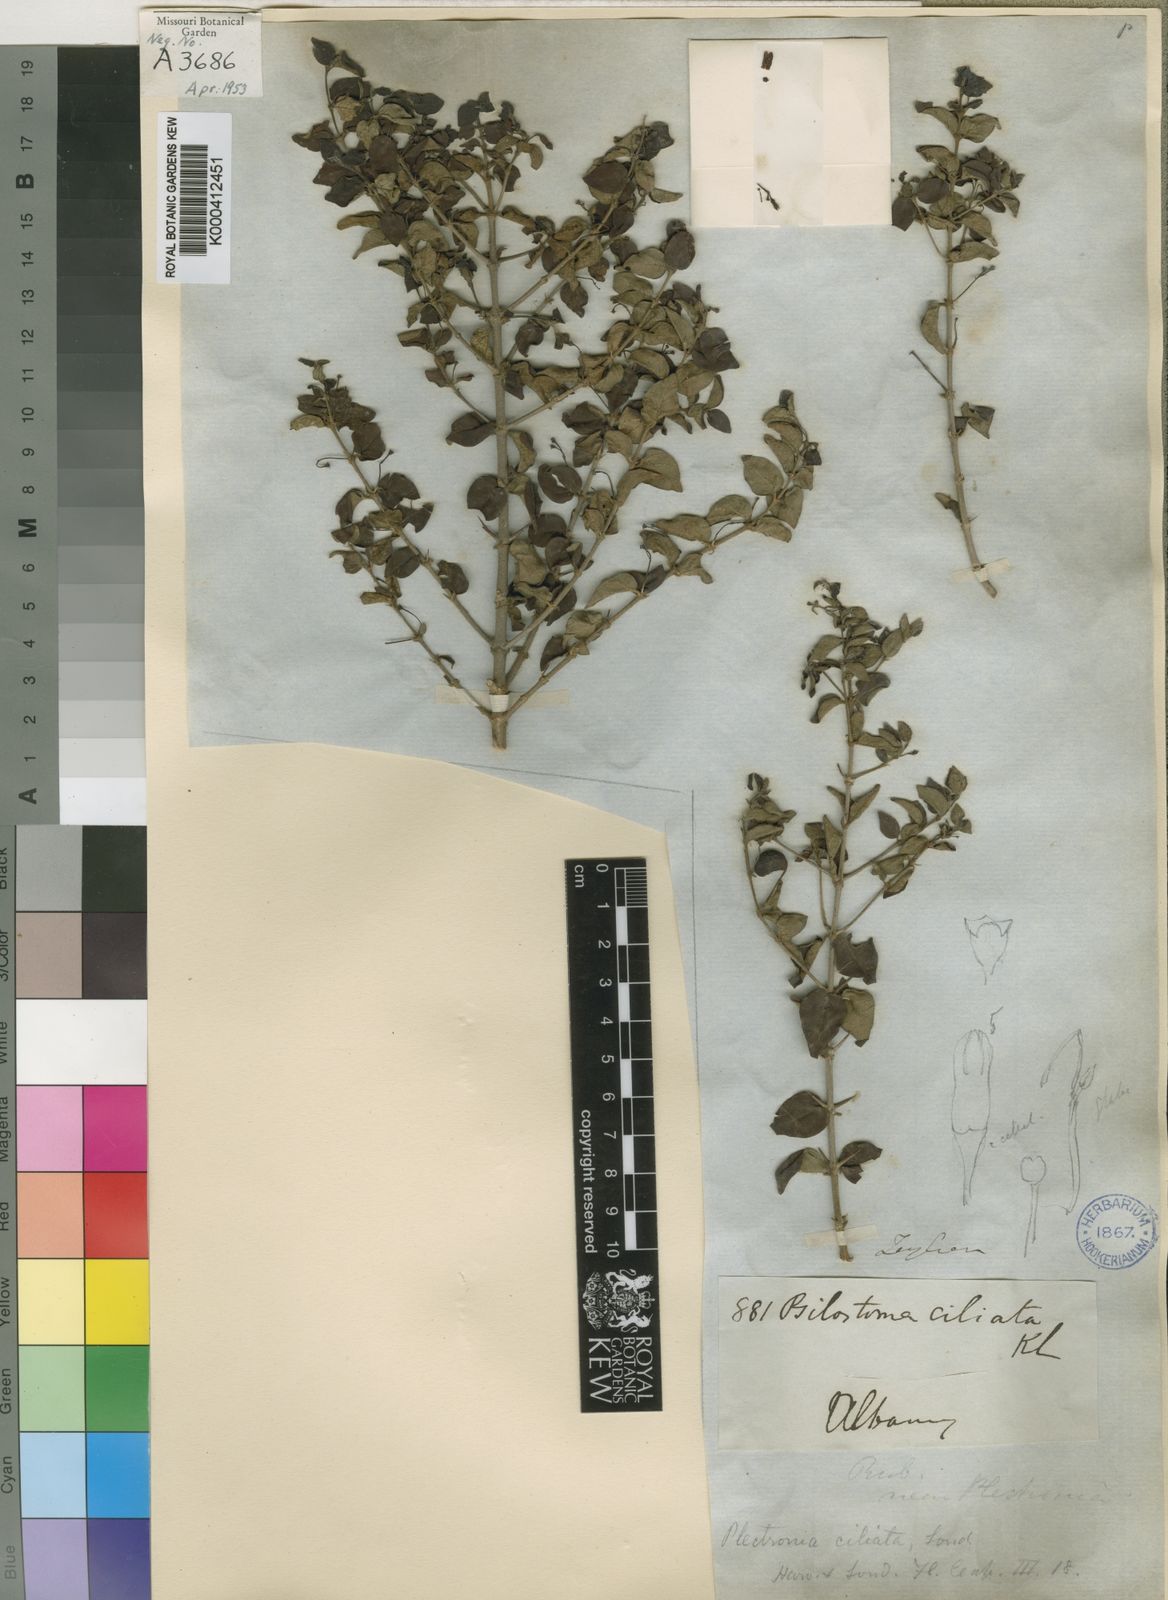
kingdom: Plantae
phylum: Tracheophyta
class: Magnoliopsida
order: Gentianales
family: Rubiaceae
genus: Canthium
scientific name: Canthium ciliatum
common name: Hairy turkey-berry
